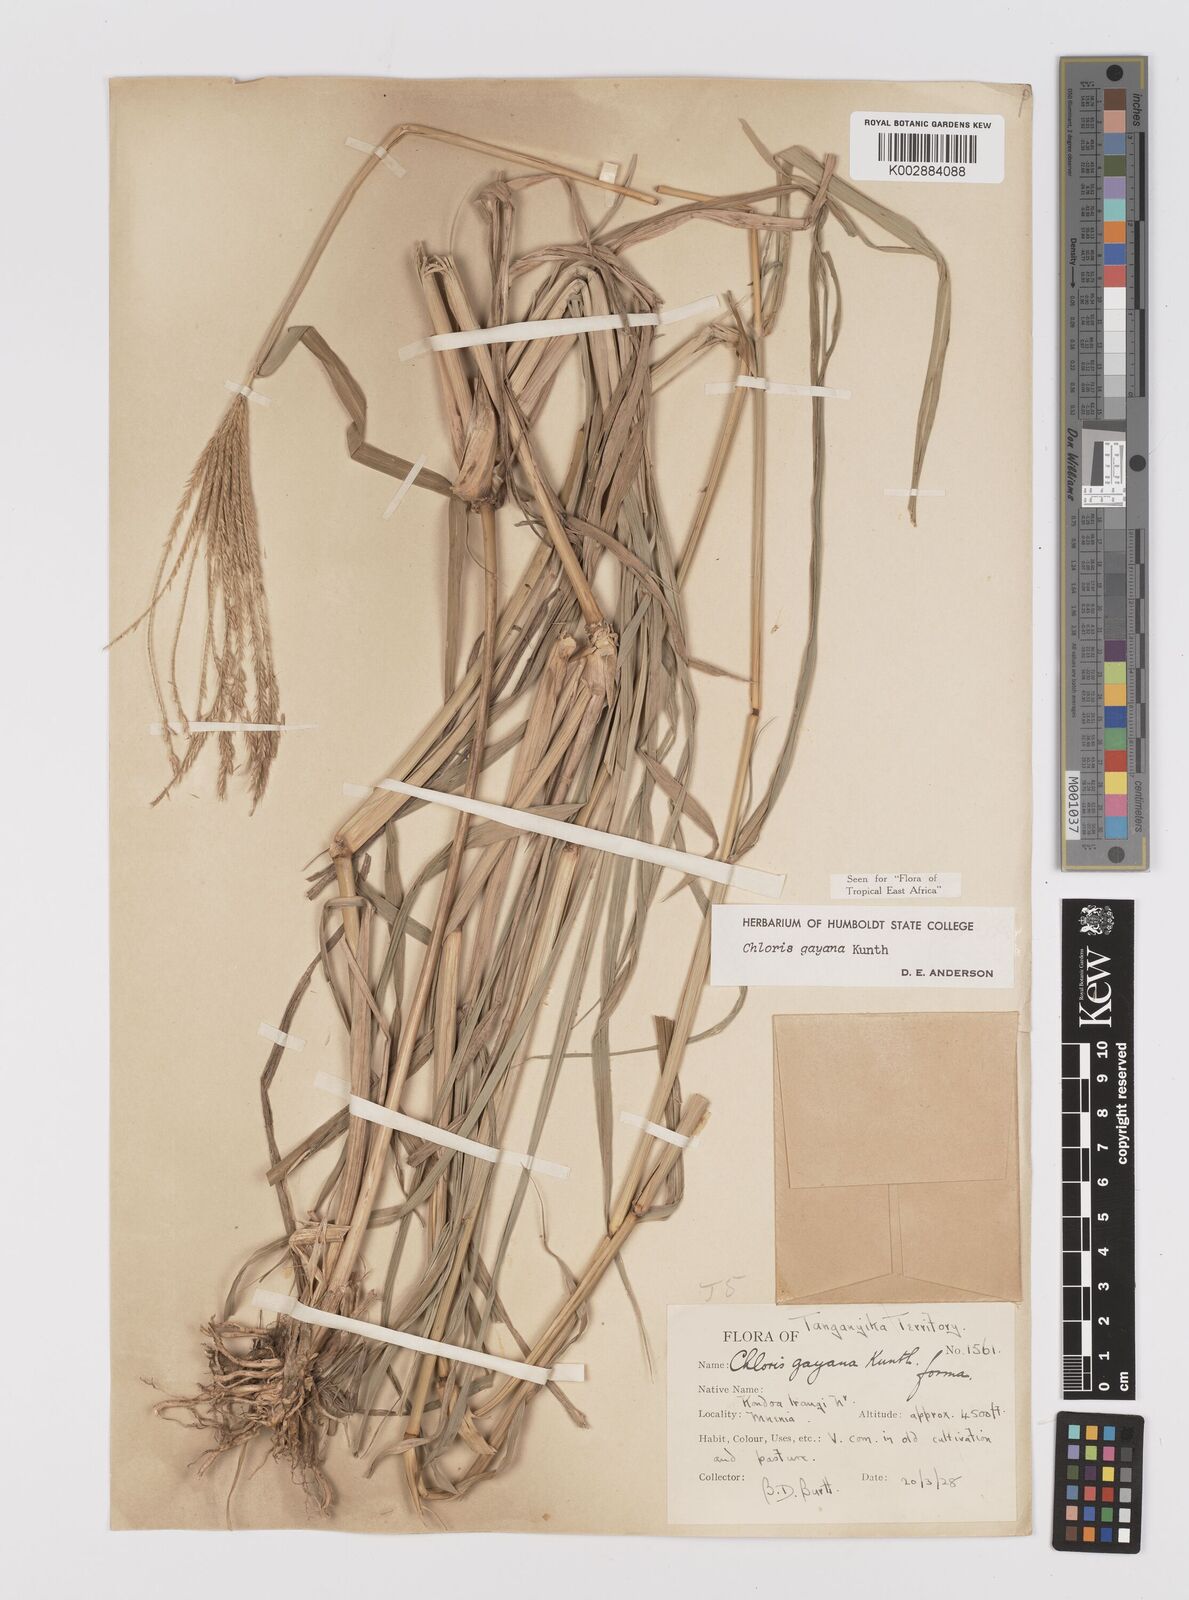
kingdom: Plantae
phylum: Tracheophyta
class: Liliopsida
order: Poales
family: Poaceae
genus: Chloris
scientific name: Chloris gayana
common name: Rhodes grass
